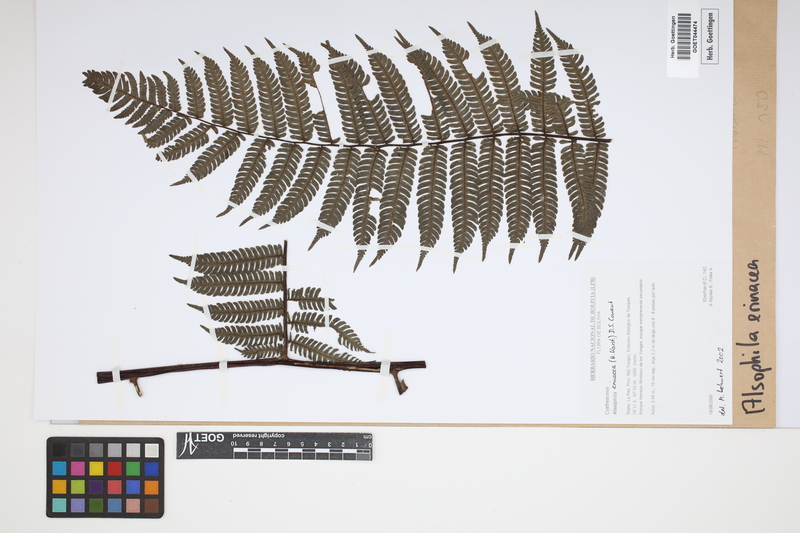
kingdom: Plantae
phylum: Tracheophyta
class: Polypodiopsida
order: Cyatheales
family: Cyatheaceae
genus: Alsophila
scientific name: Alsophila erinacea
